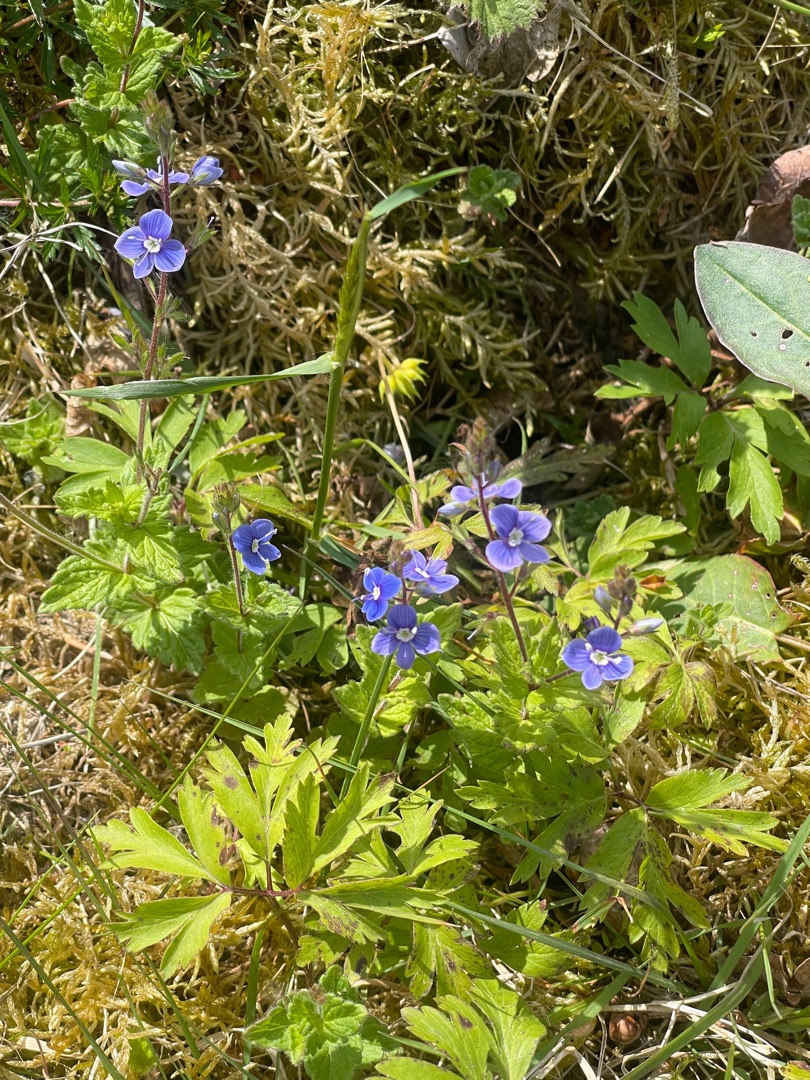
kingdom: Plantae
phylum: Tracheophyta
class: Magnoliopsida
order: Lamiales
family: Plantaginaceae
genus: Veronica
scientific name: Veronica chamaedrys
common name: Tveskægget ærenpris
